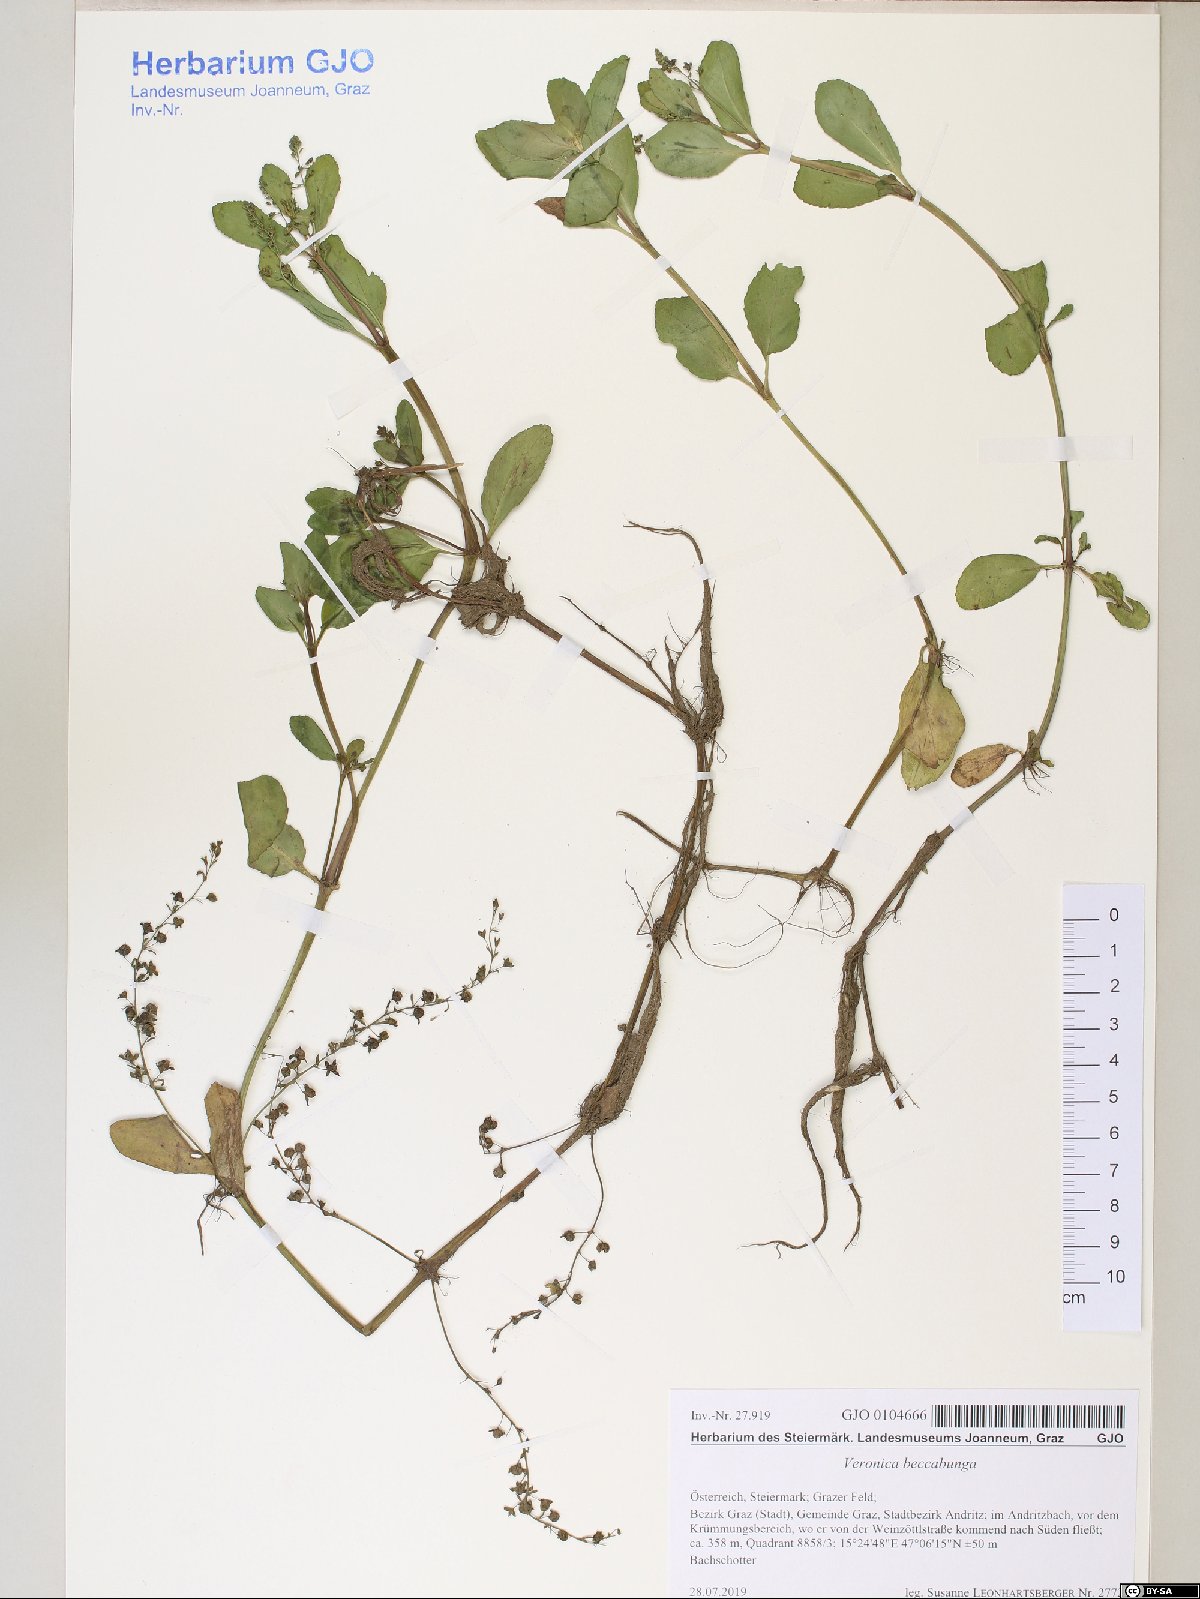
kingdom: Plantae
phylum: Tracheophyta
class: Magnoliopsida
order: Lamiales
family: Plantaginaceae
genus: Veronica
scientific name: Veronica beccabunga
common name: Brooklime
